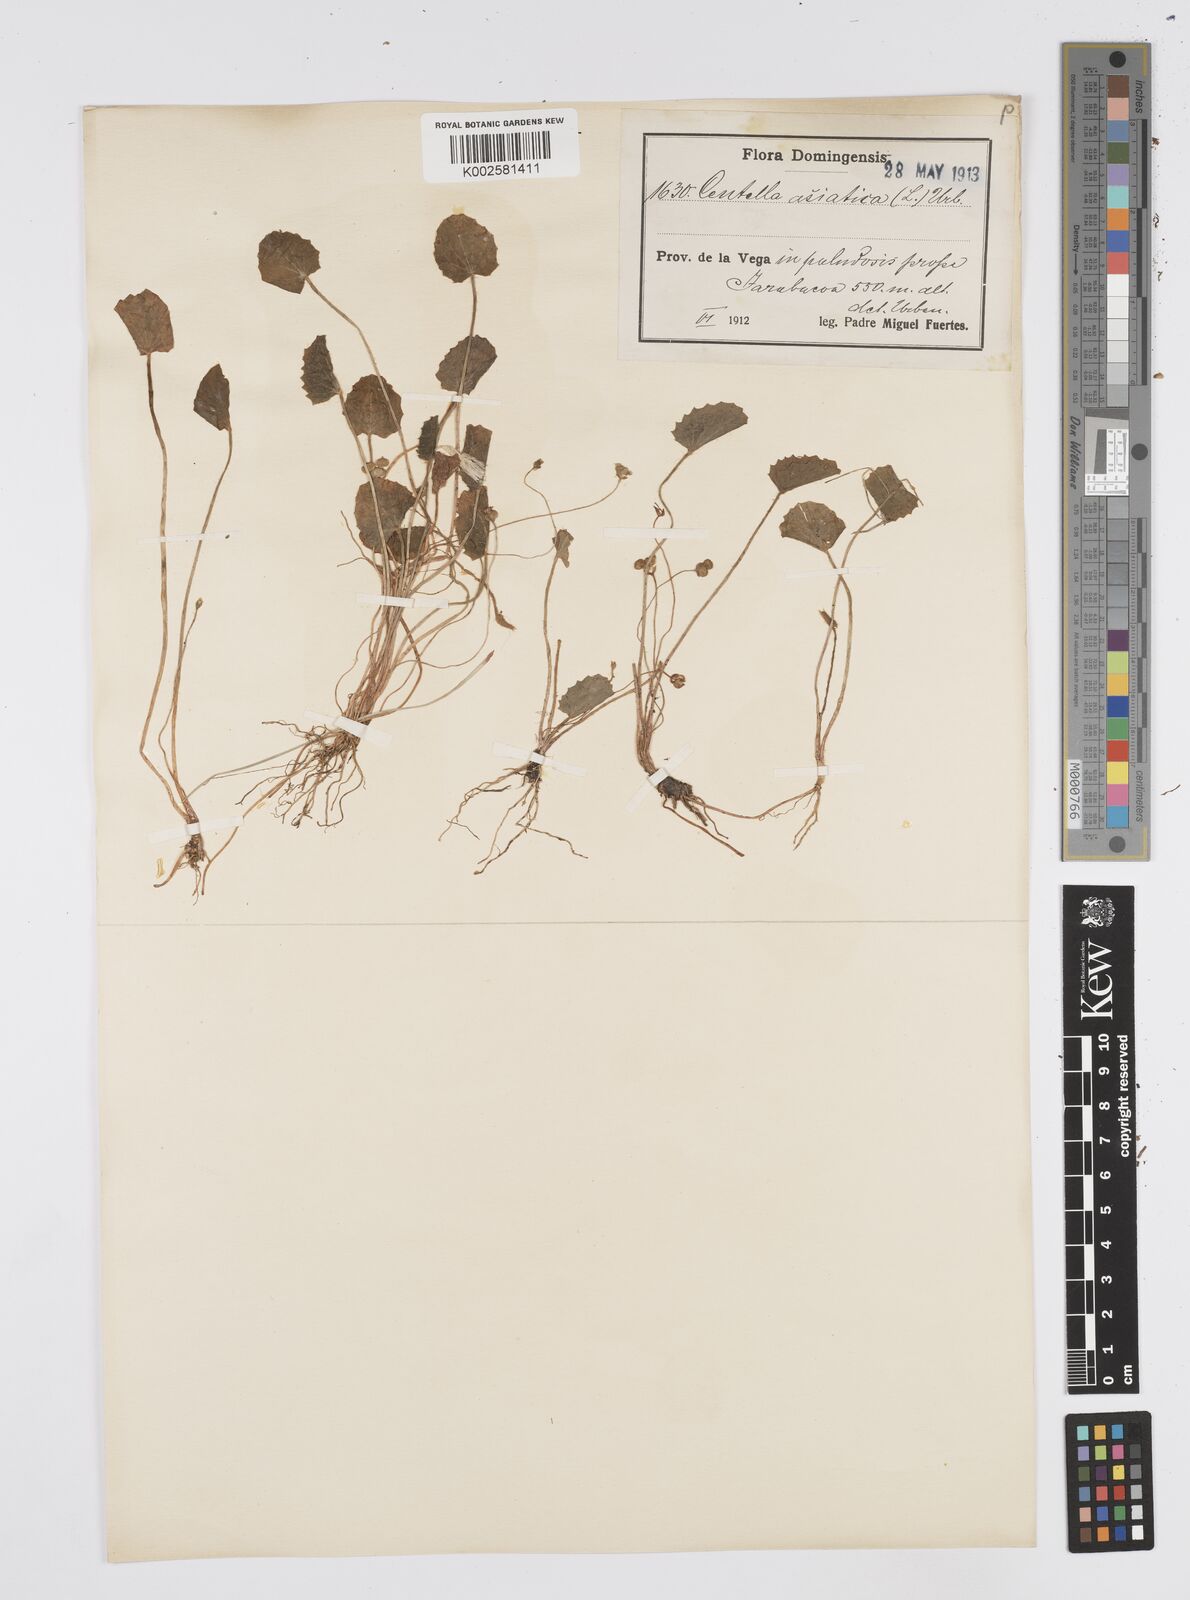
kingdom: Plantae
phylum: Tracheophyta
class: Magnoliopsida
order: Apiales
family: Apiaceae
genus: Centella
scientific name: Centella asiatica
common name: Spadeleaf
